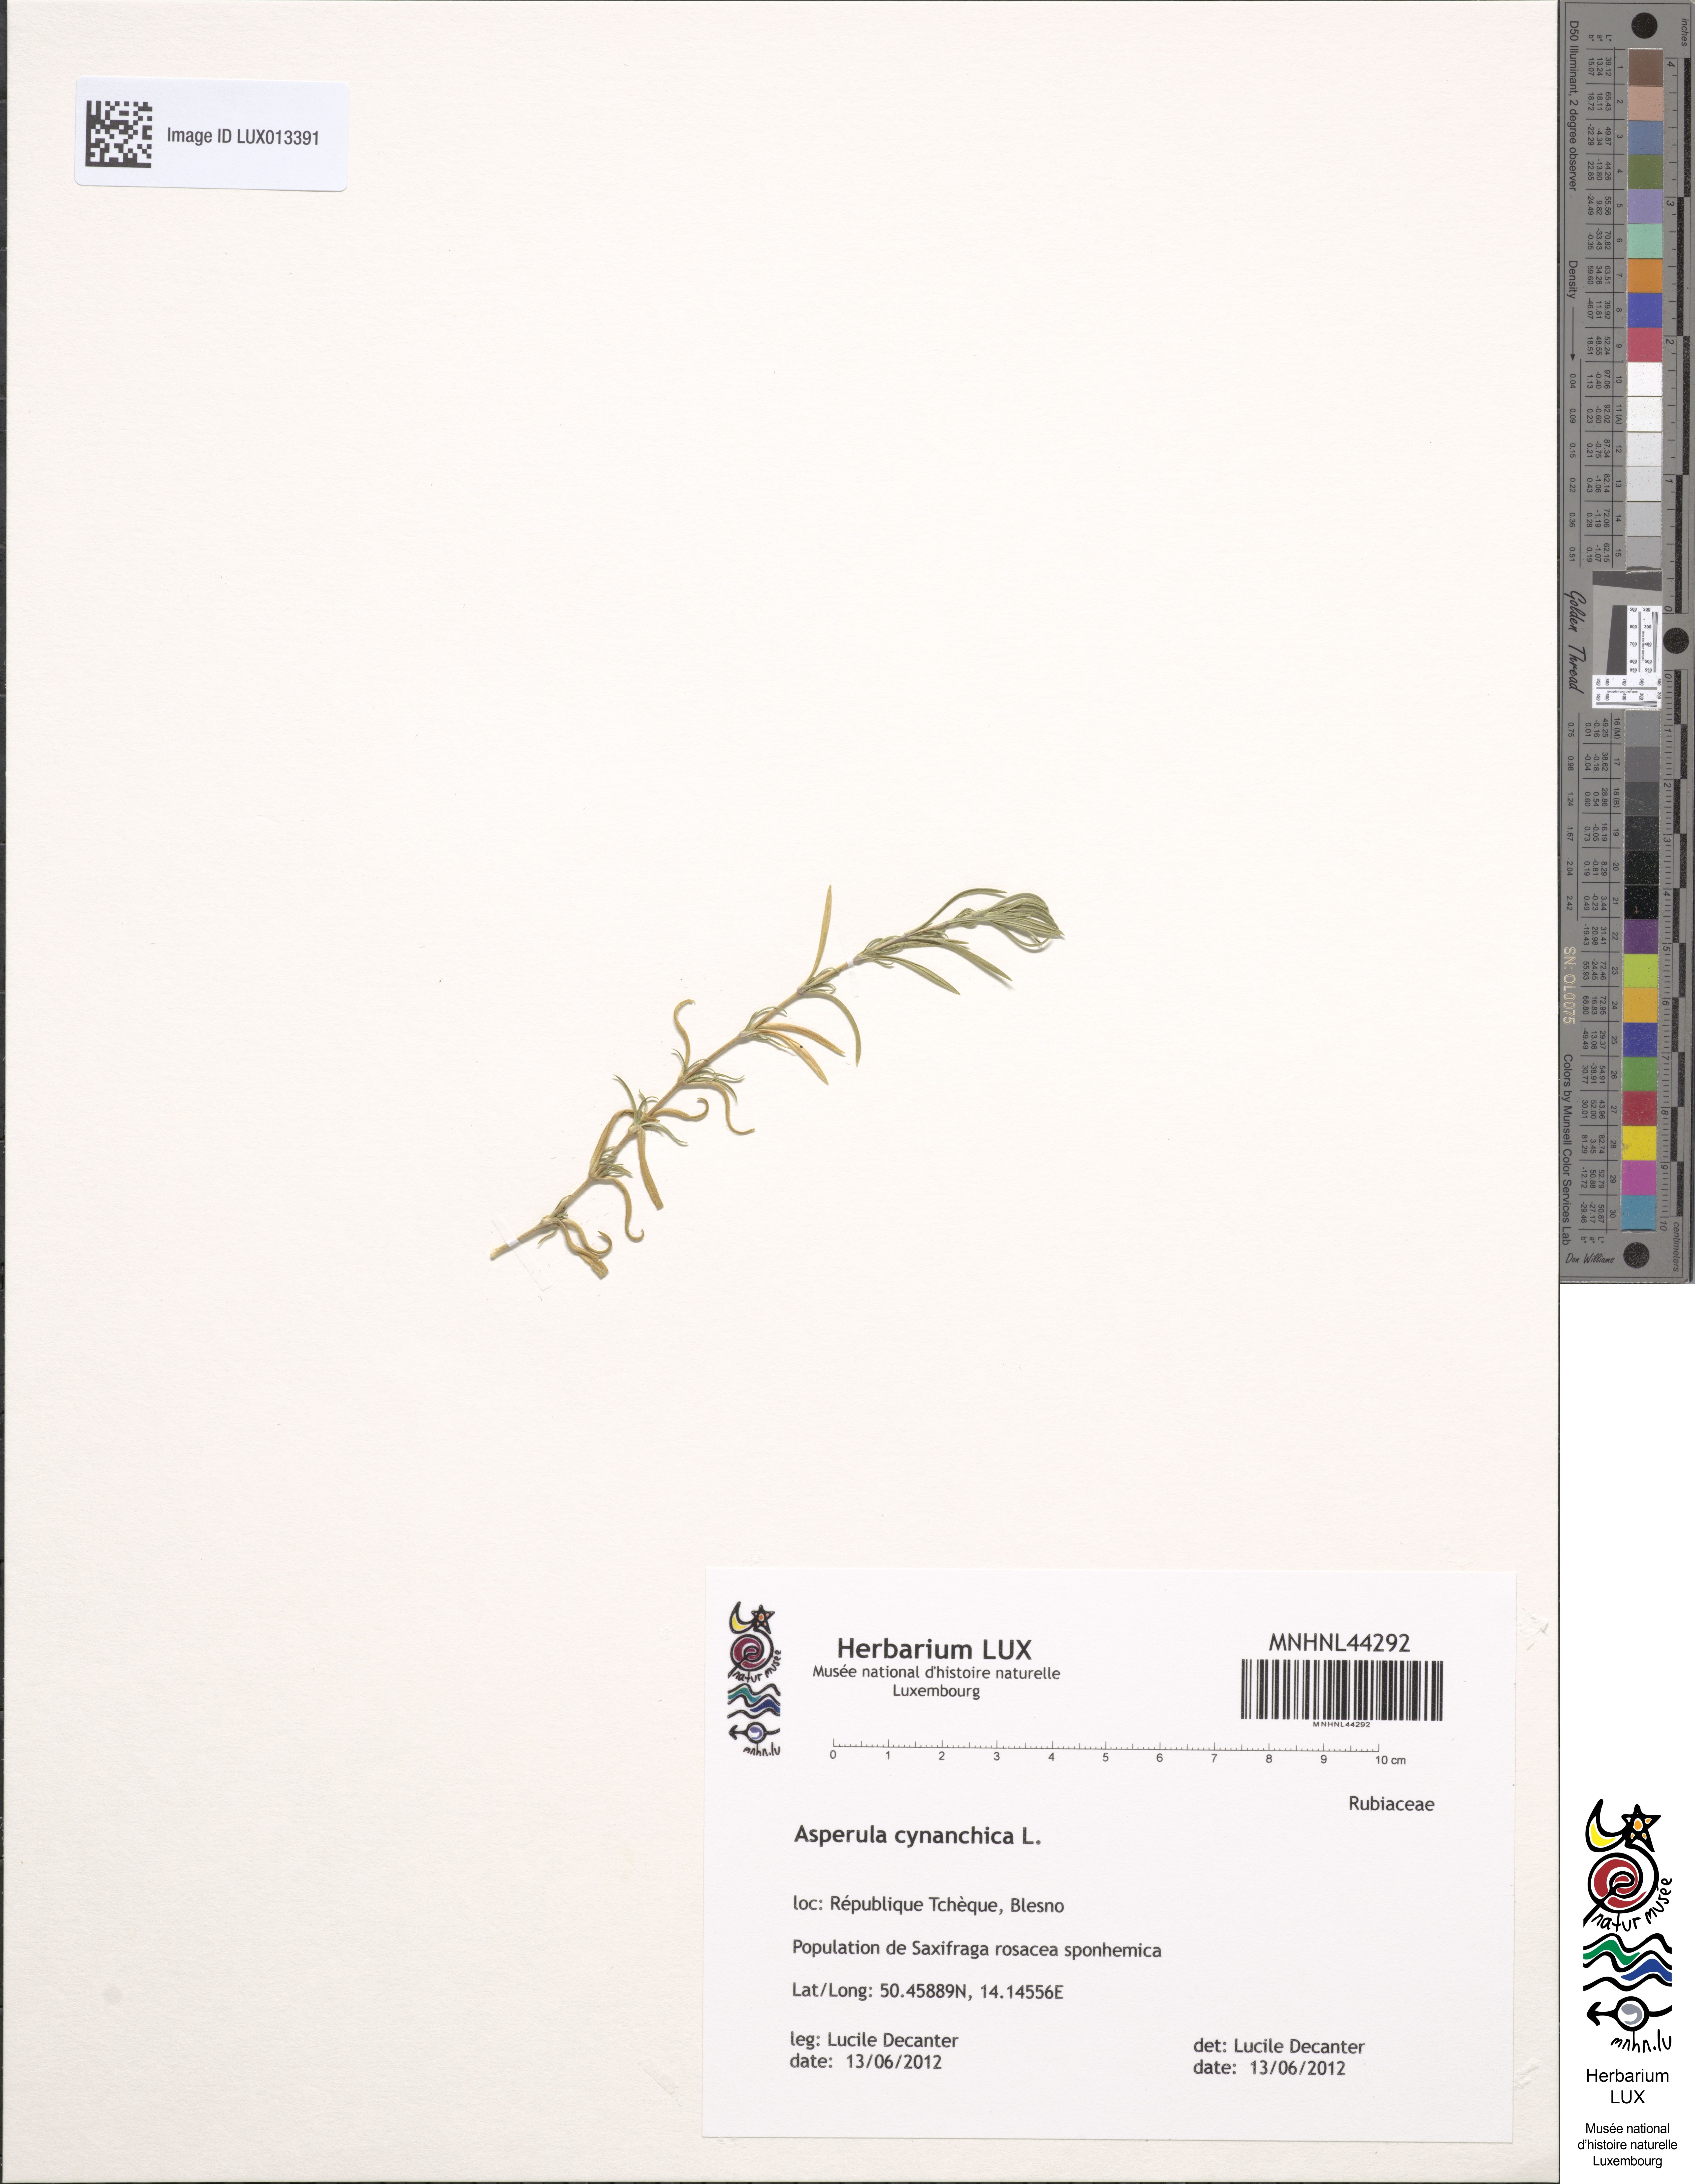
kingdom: Plantae
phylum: Tracheophyta
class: Magnoliopsida
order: Gentianales
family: Rubiaceae
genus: Cynanchica
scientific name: Cynanchica pyrenaica
